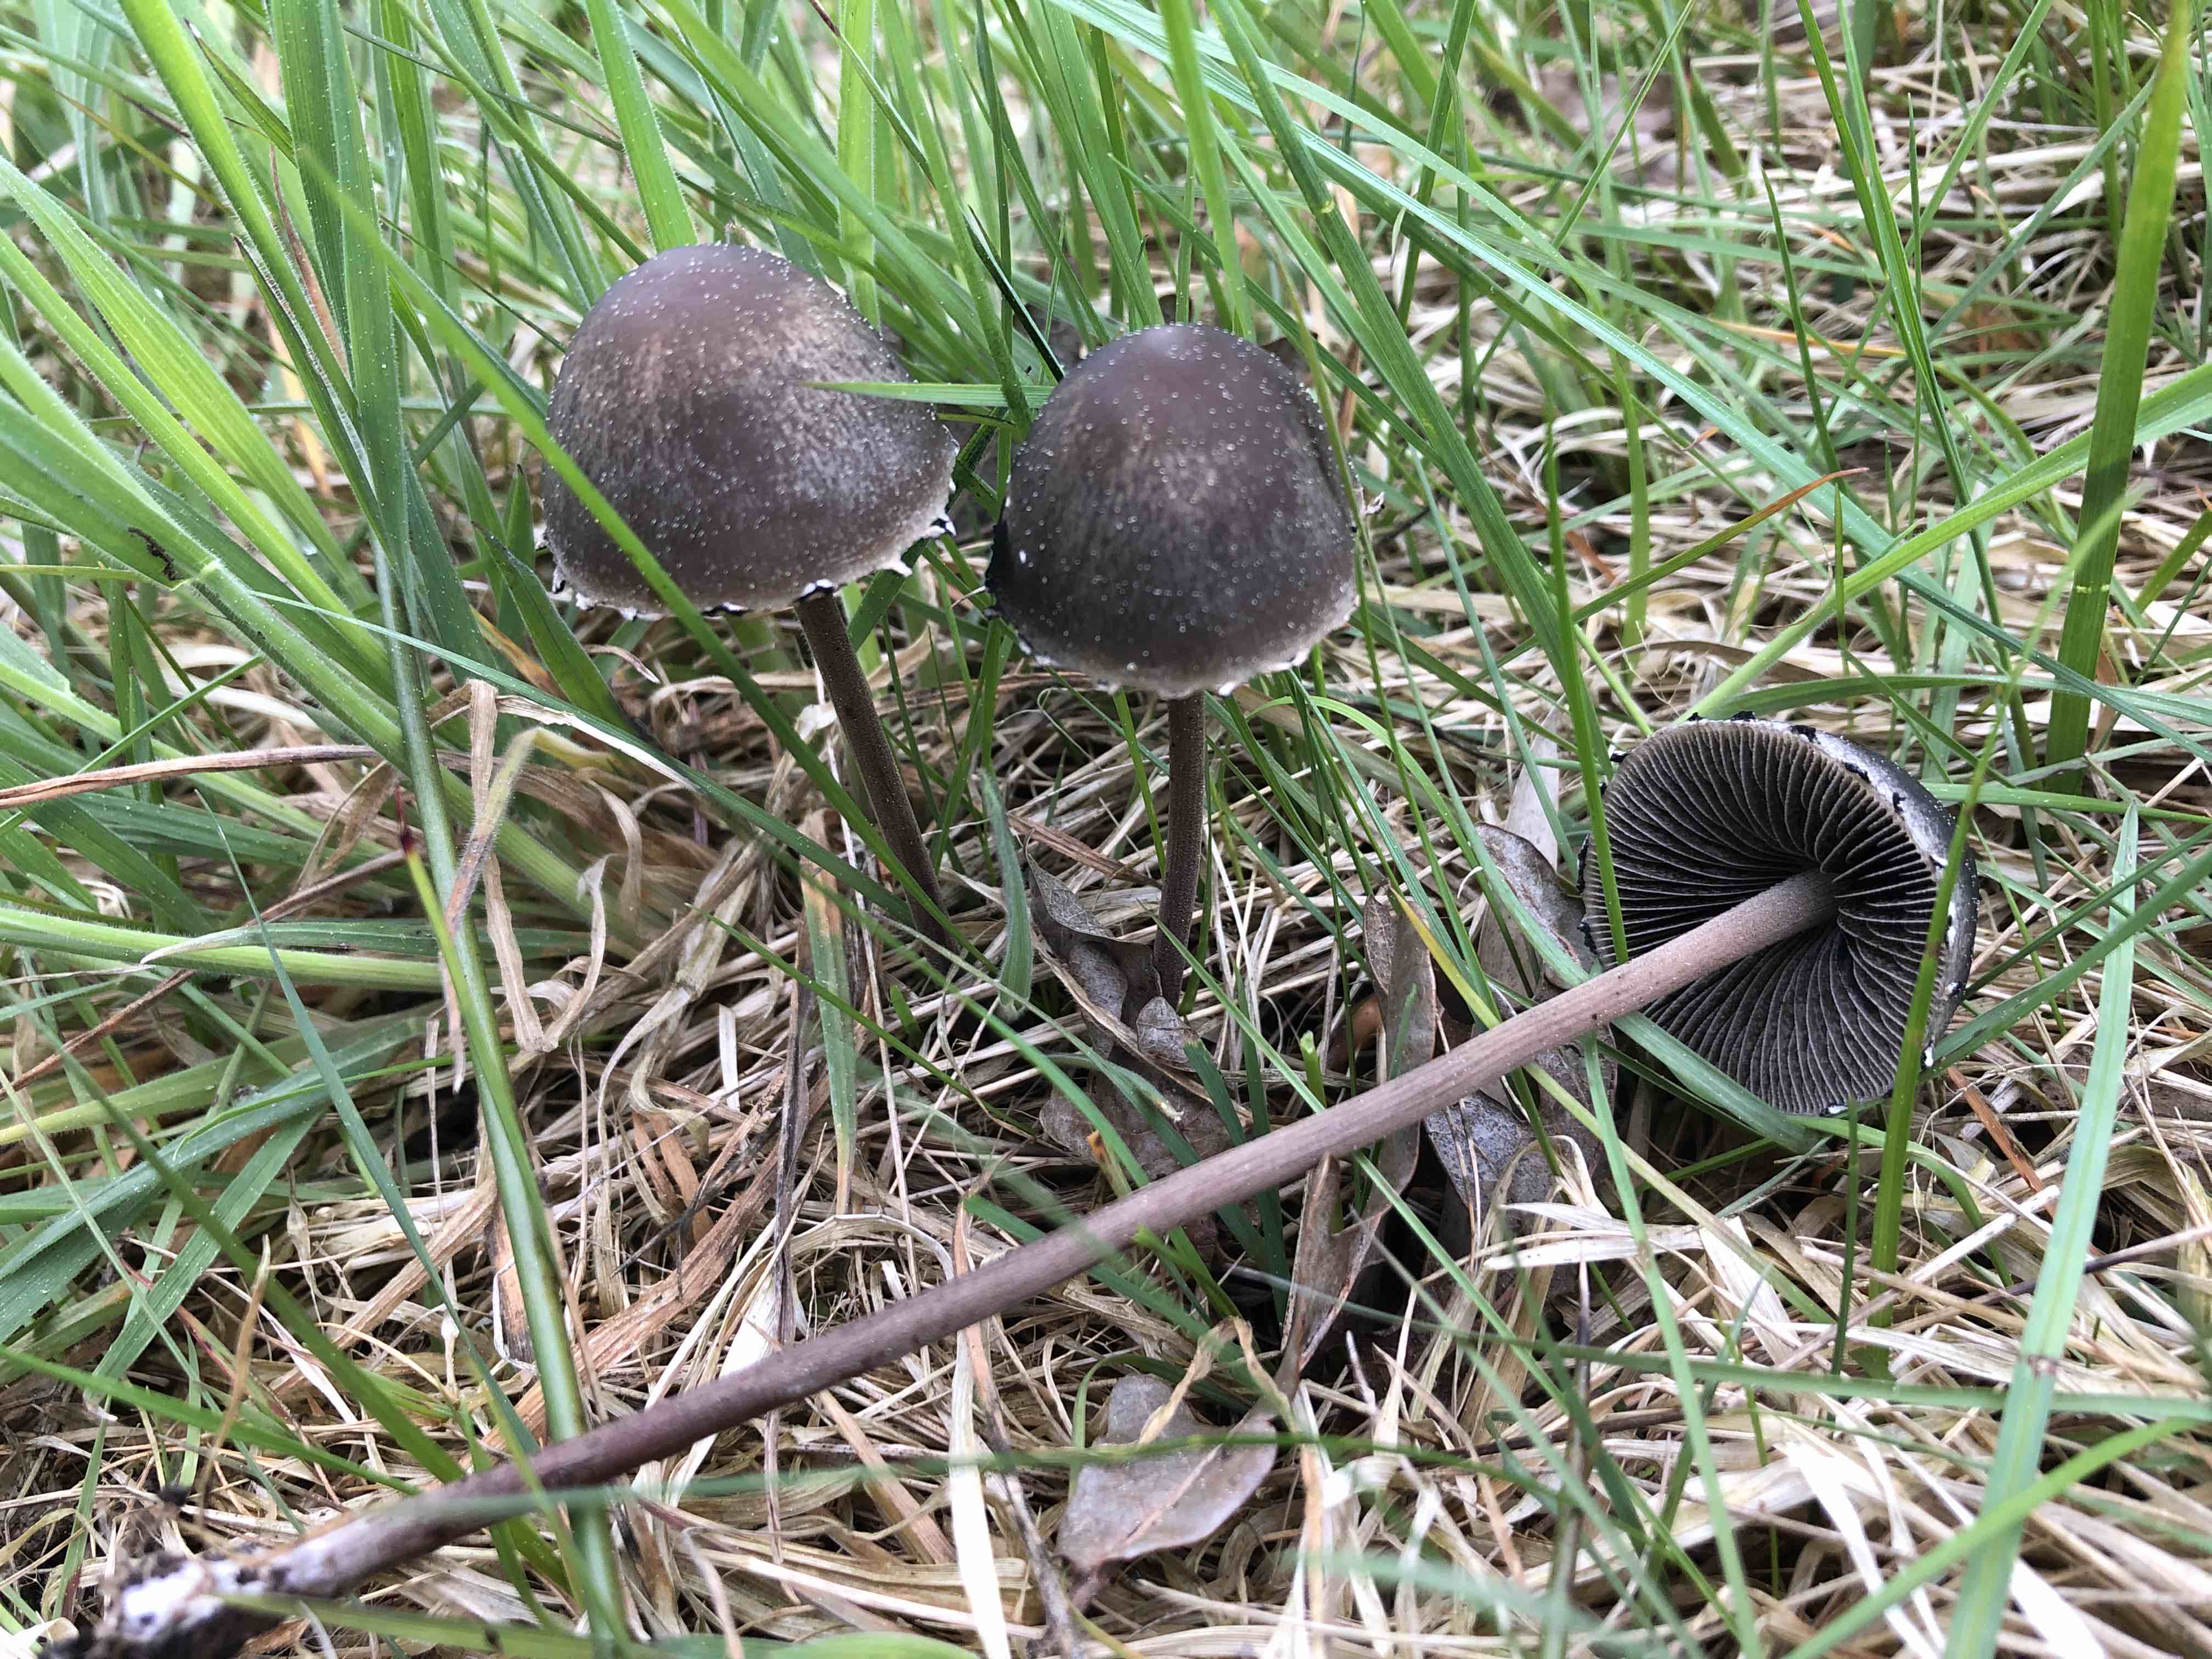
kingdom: Fungi
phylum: Basidiomycota
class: Agaricomycetes
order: Agaricales
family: Bolbitiaceae
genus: Panaeolus
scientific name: Panaeolus papilionaceus
